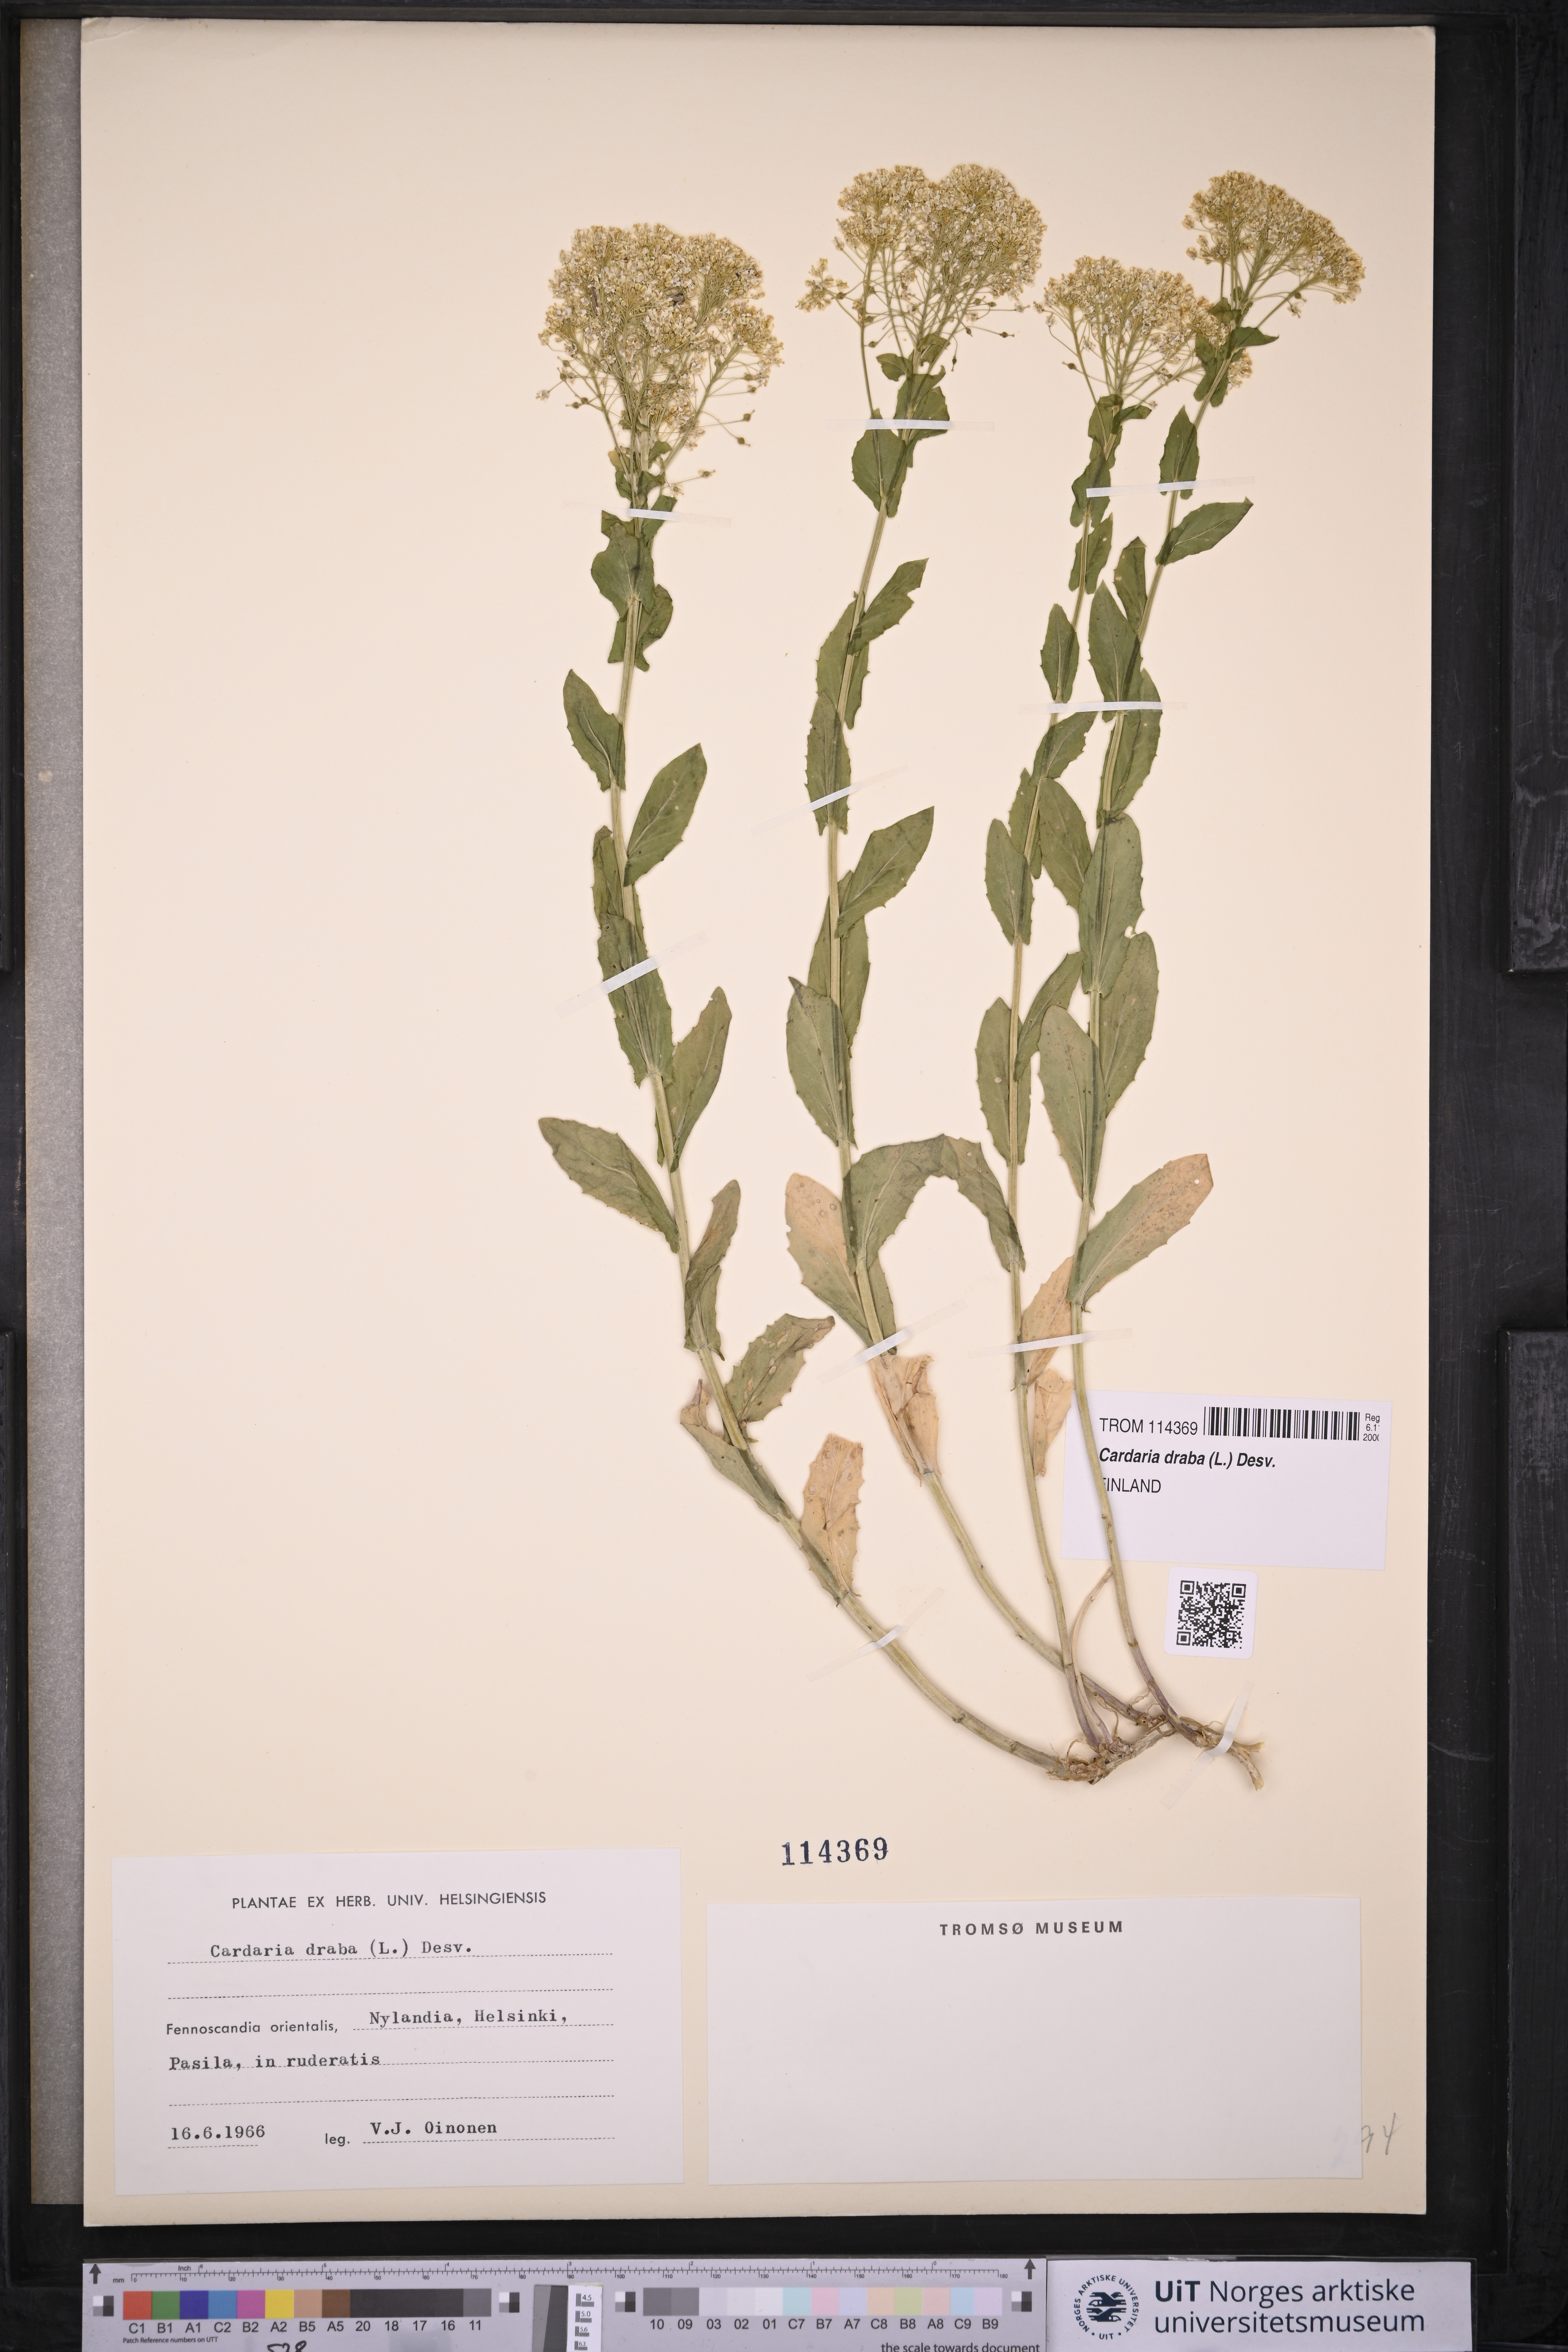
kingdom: Plantae
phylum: Tracheophyta
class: Magnoliopsida
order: Brassicales
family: Brassicaceae
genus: Lepidium
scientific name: Lepidium draba
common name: Hoary cress
